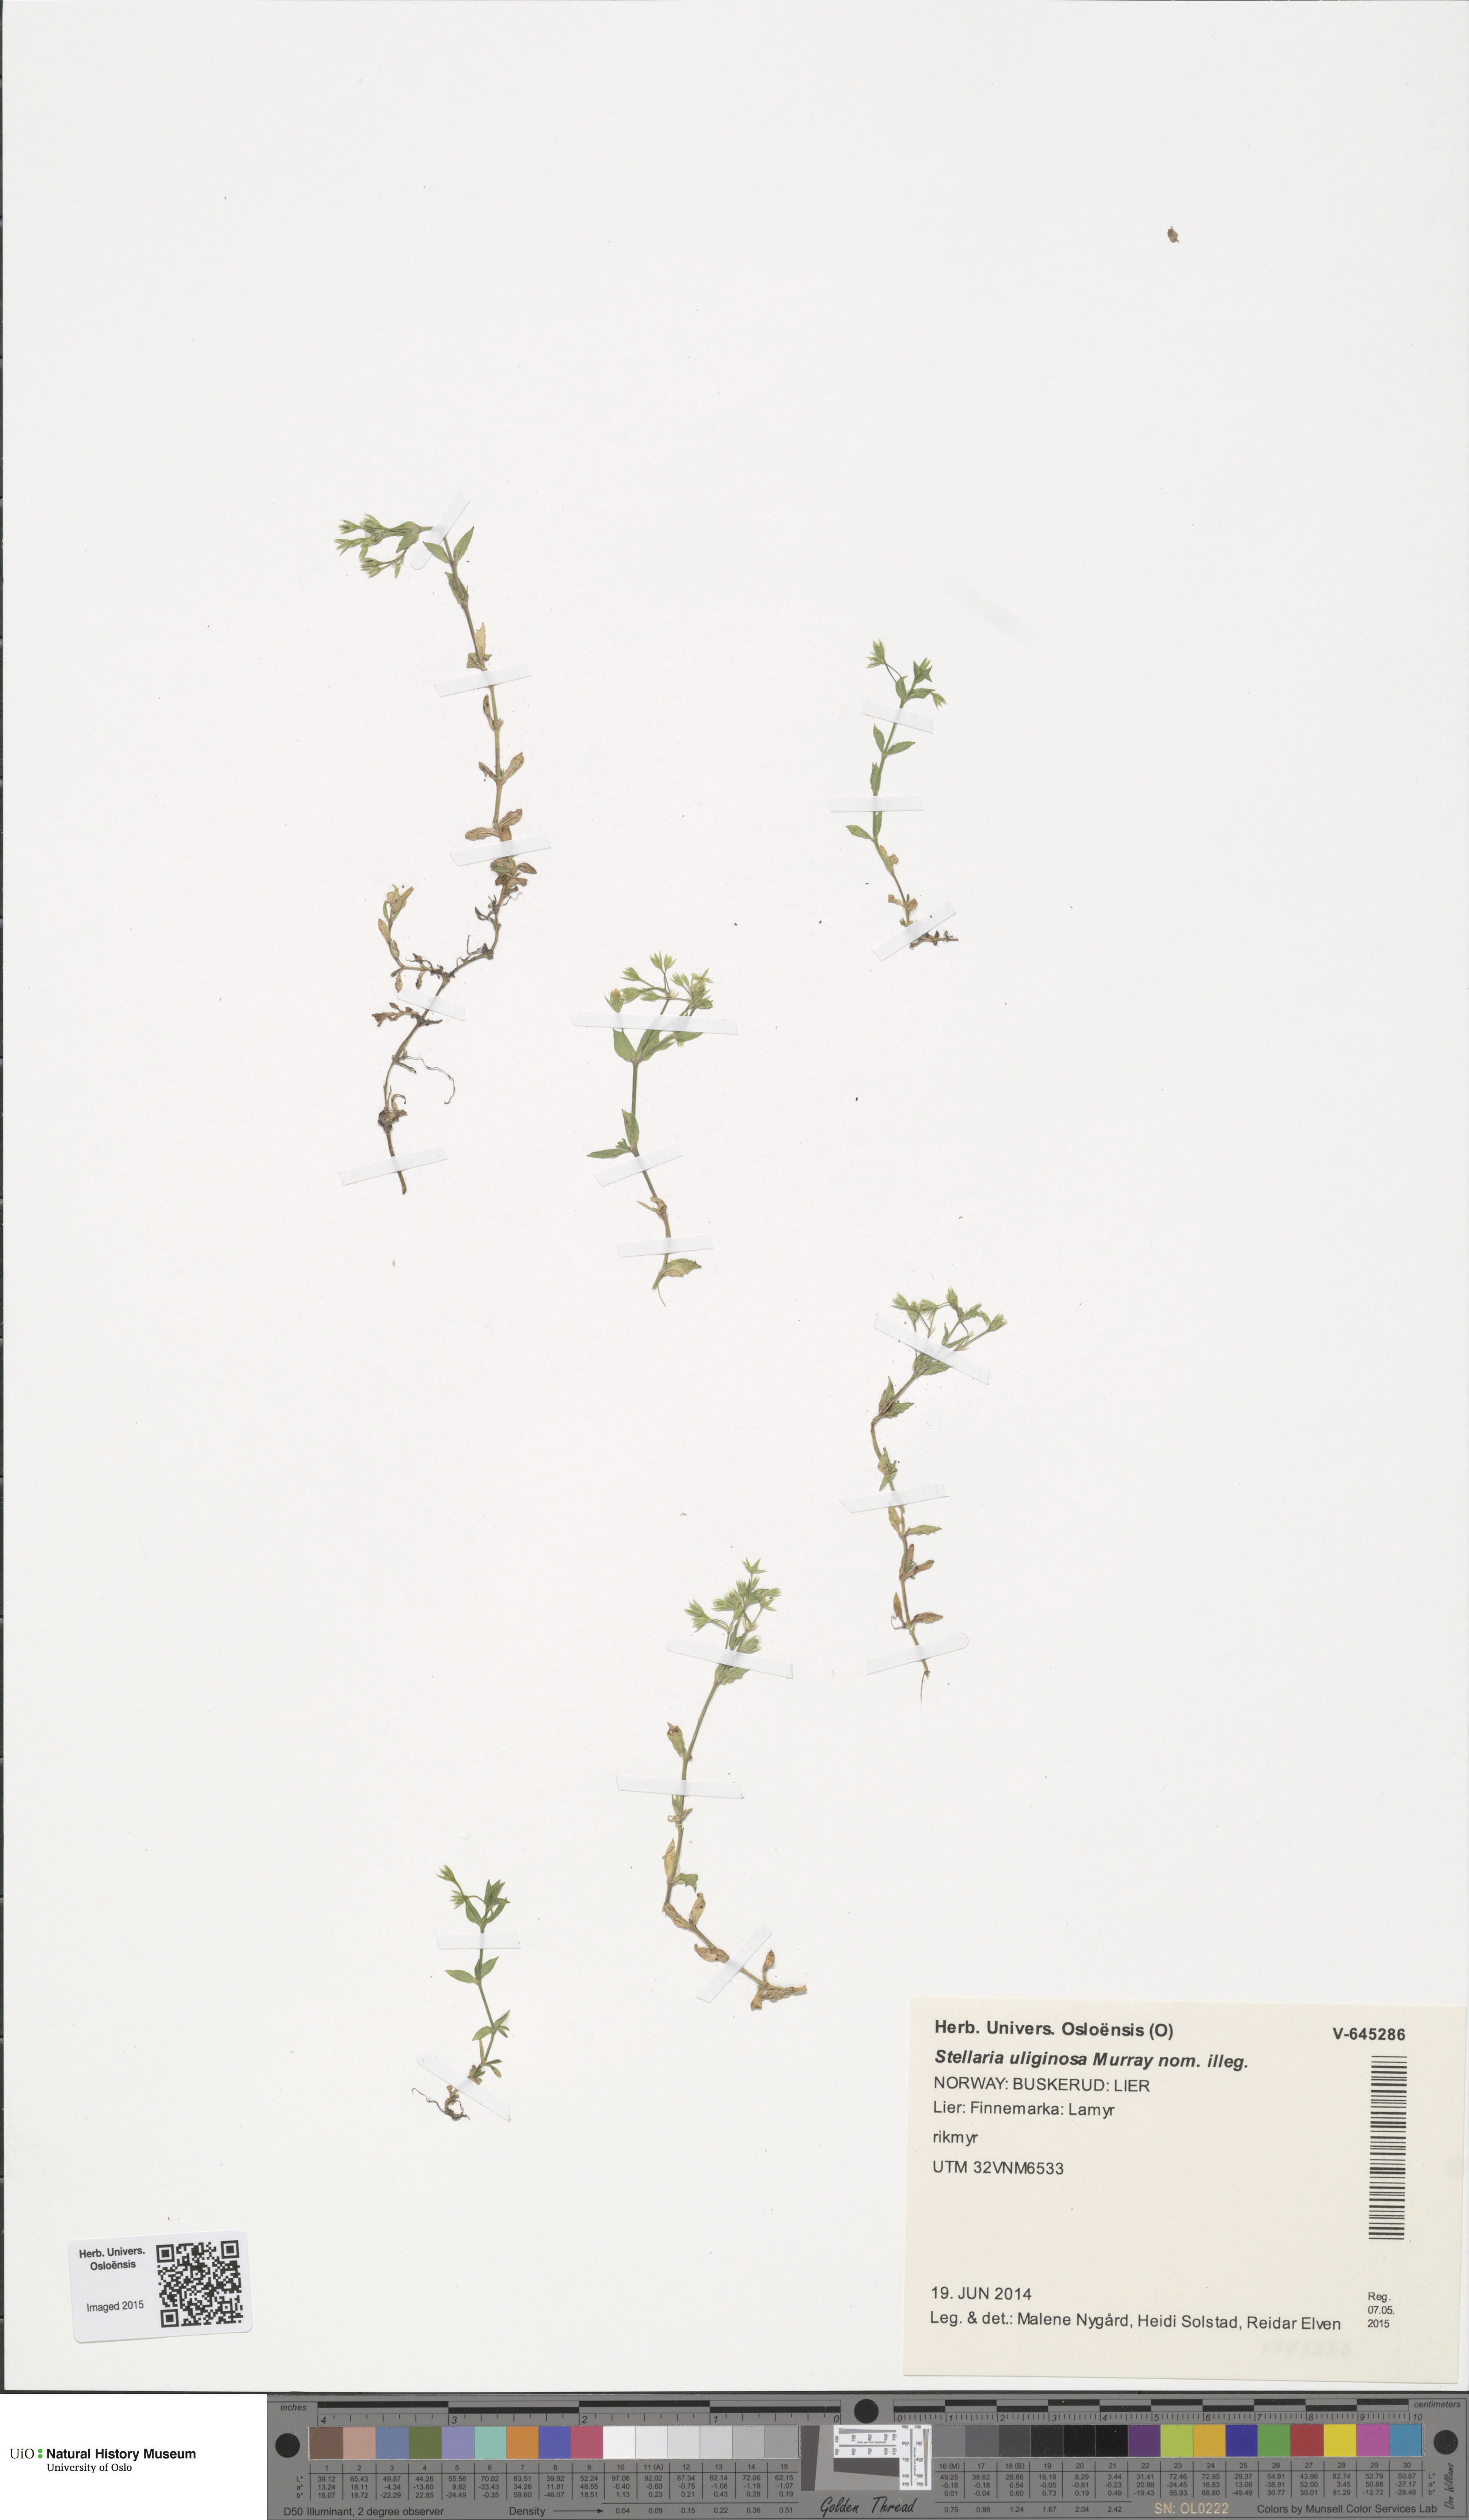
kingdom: Plantae
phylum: Tracheophyta
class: Magnoliopsida
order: Caryophyllales
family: Caryophyllaceae
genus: Stellaria
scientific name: Stellaria alsine
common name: Bog stitchwort
